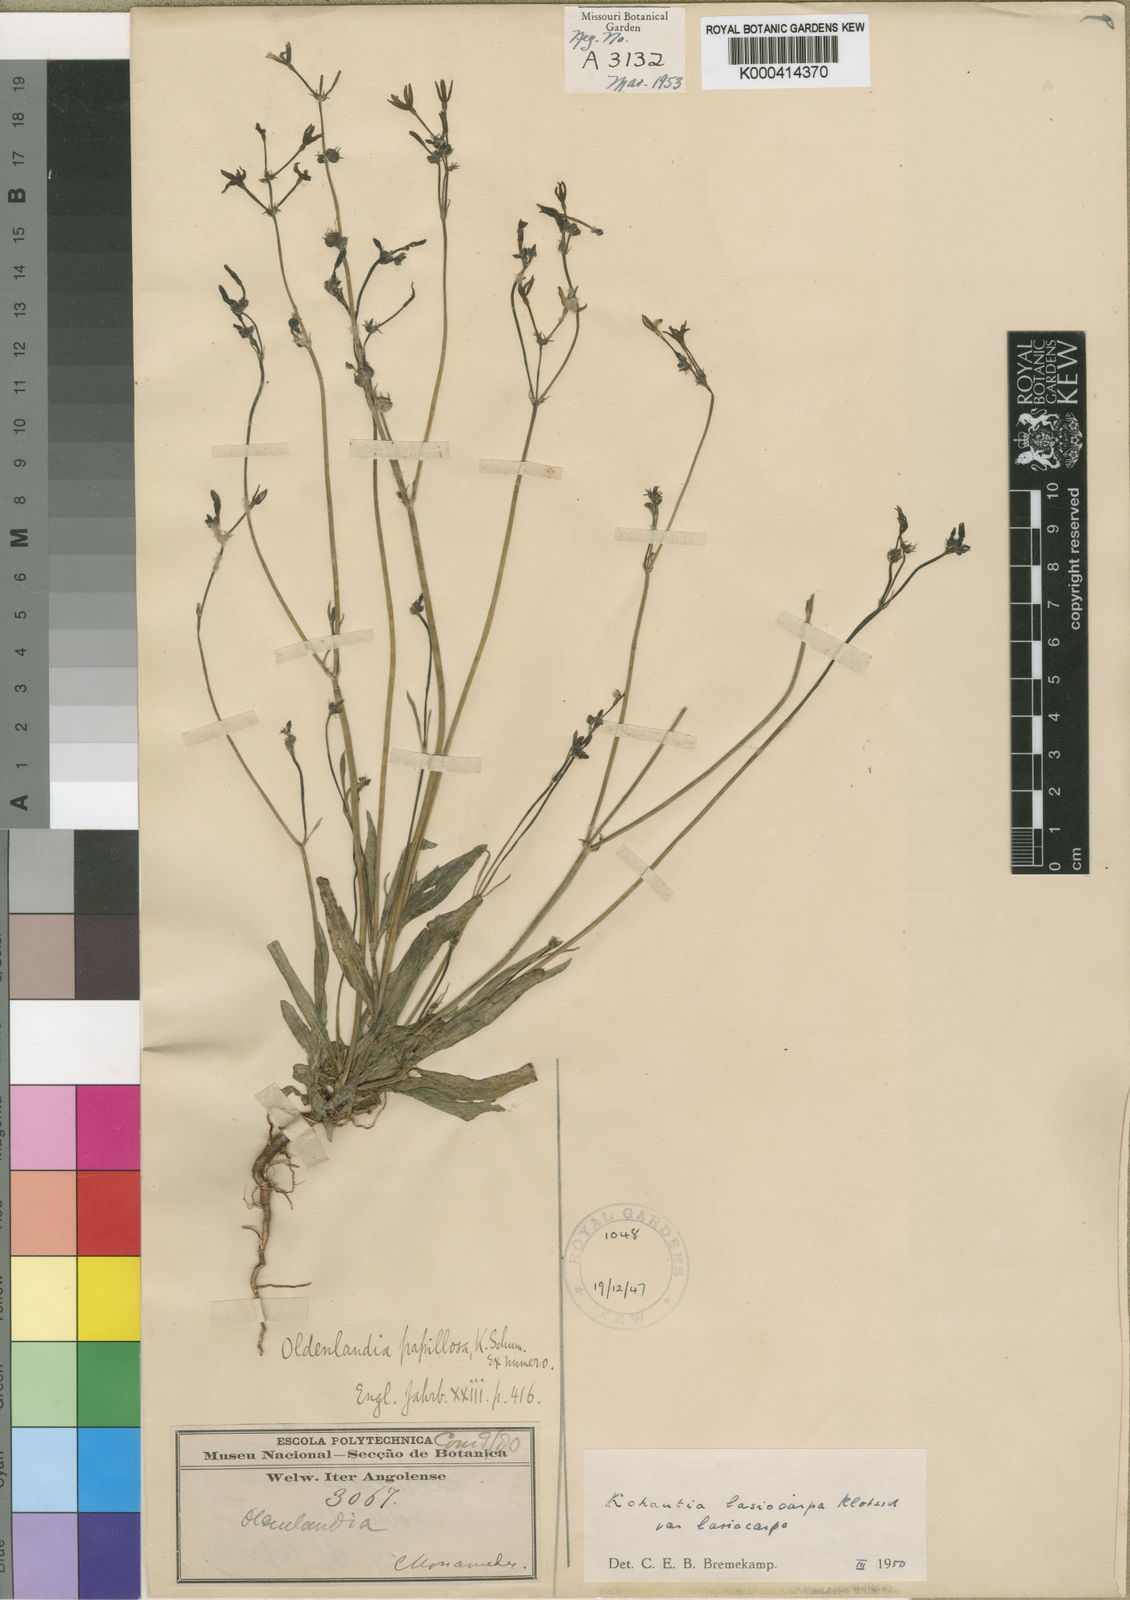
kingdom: Plantae
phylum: Tracheophyta
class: Magnoliopsida
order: Gentianales
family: Rubiaceae
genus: Kohautia
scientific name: Kohautia caespitosa
